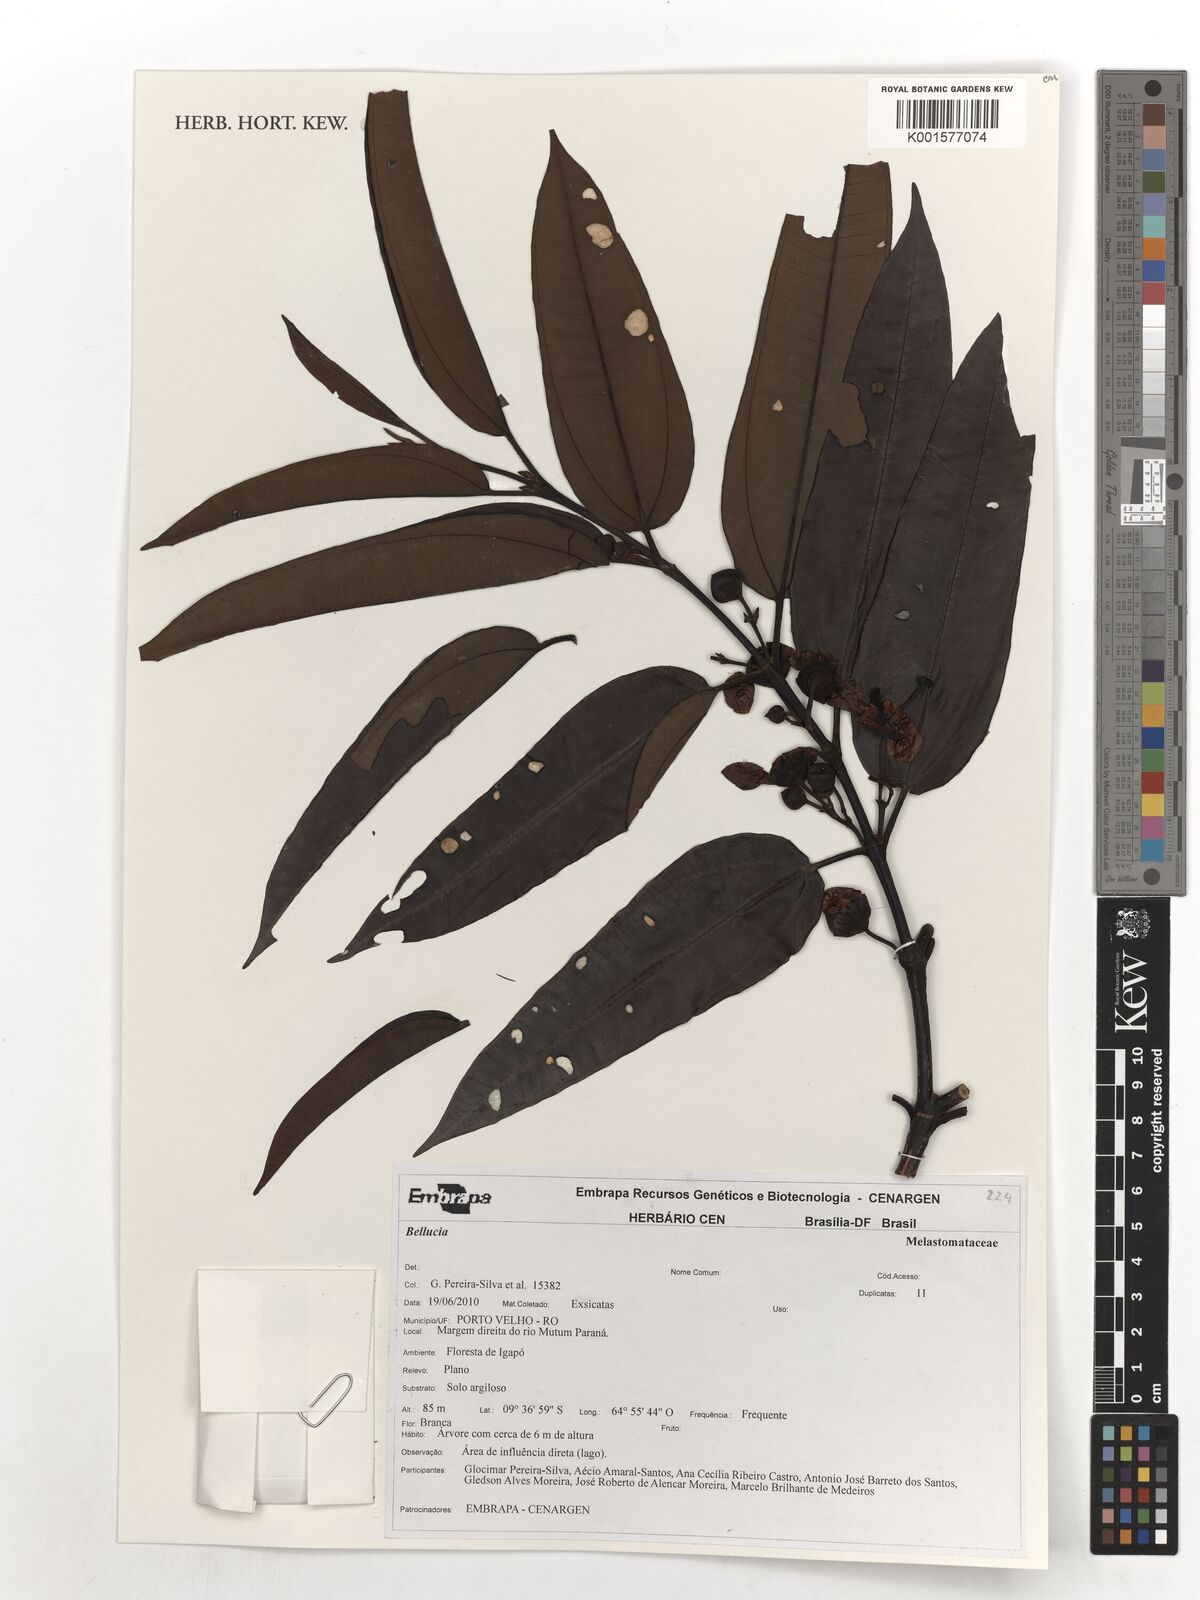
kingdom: Plantae
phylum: Tracheophyta
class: Magnoliopsida
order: Myrtales
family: Melastomataceae
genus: Bellucia
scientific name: Bellucia
